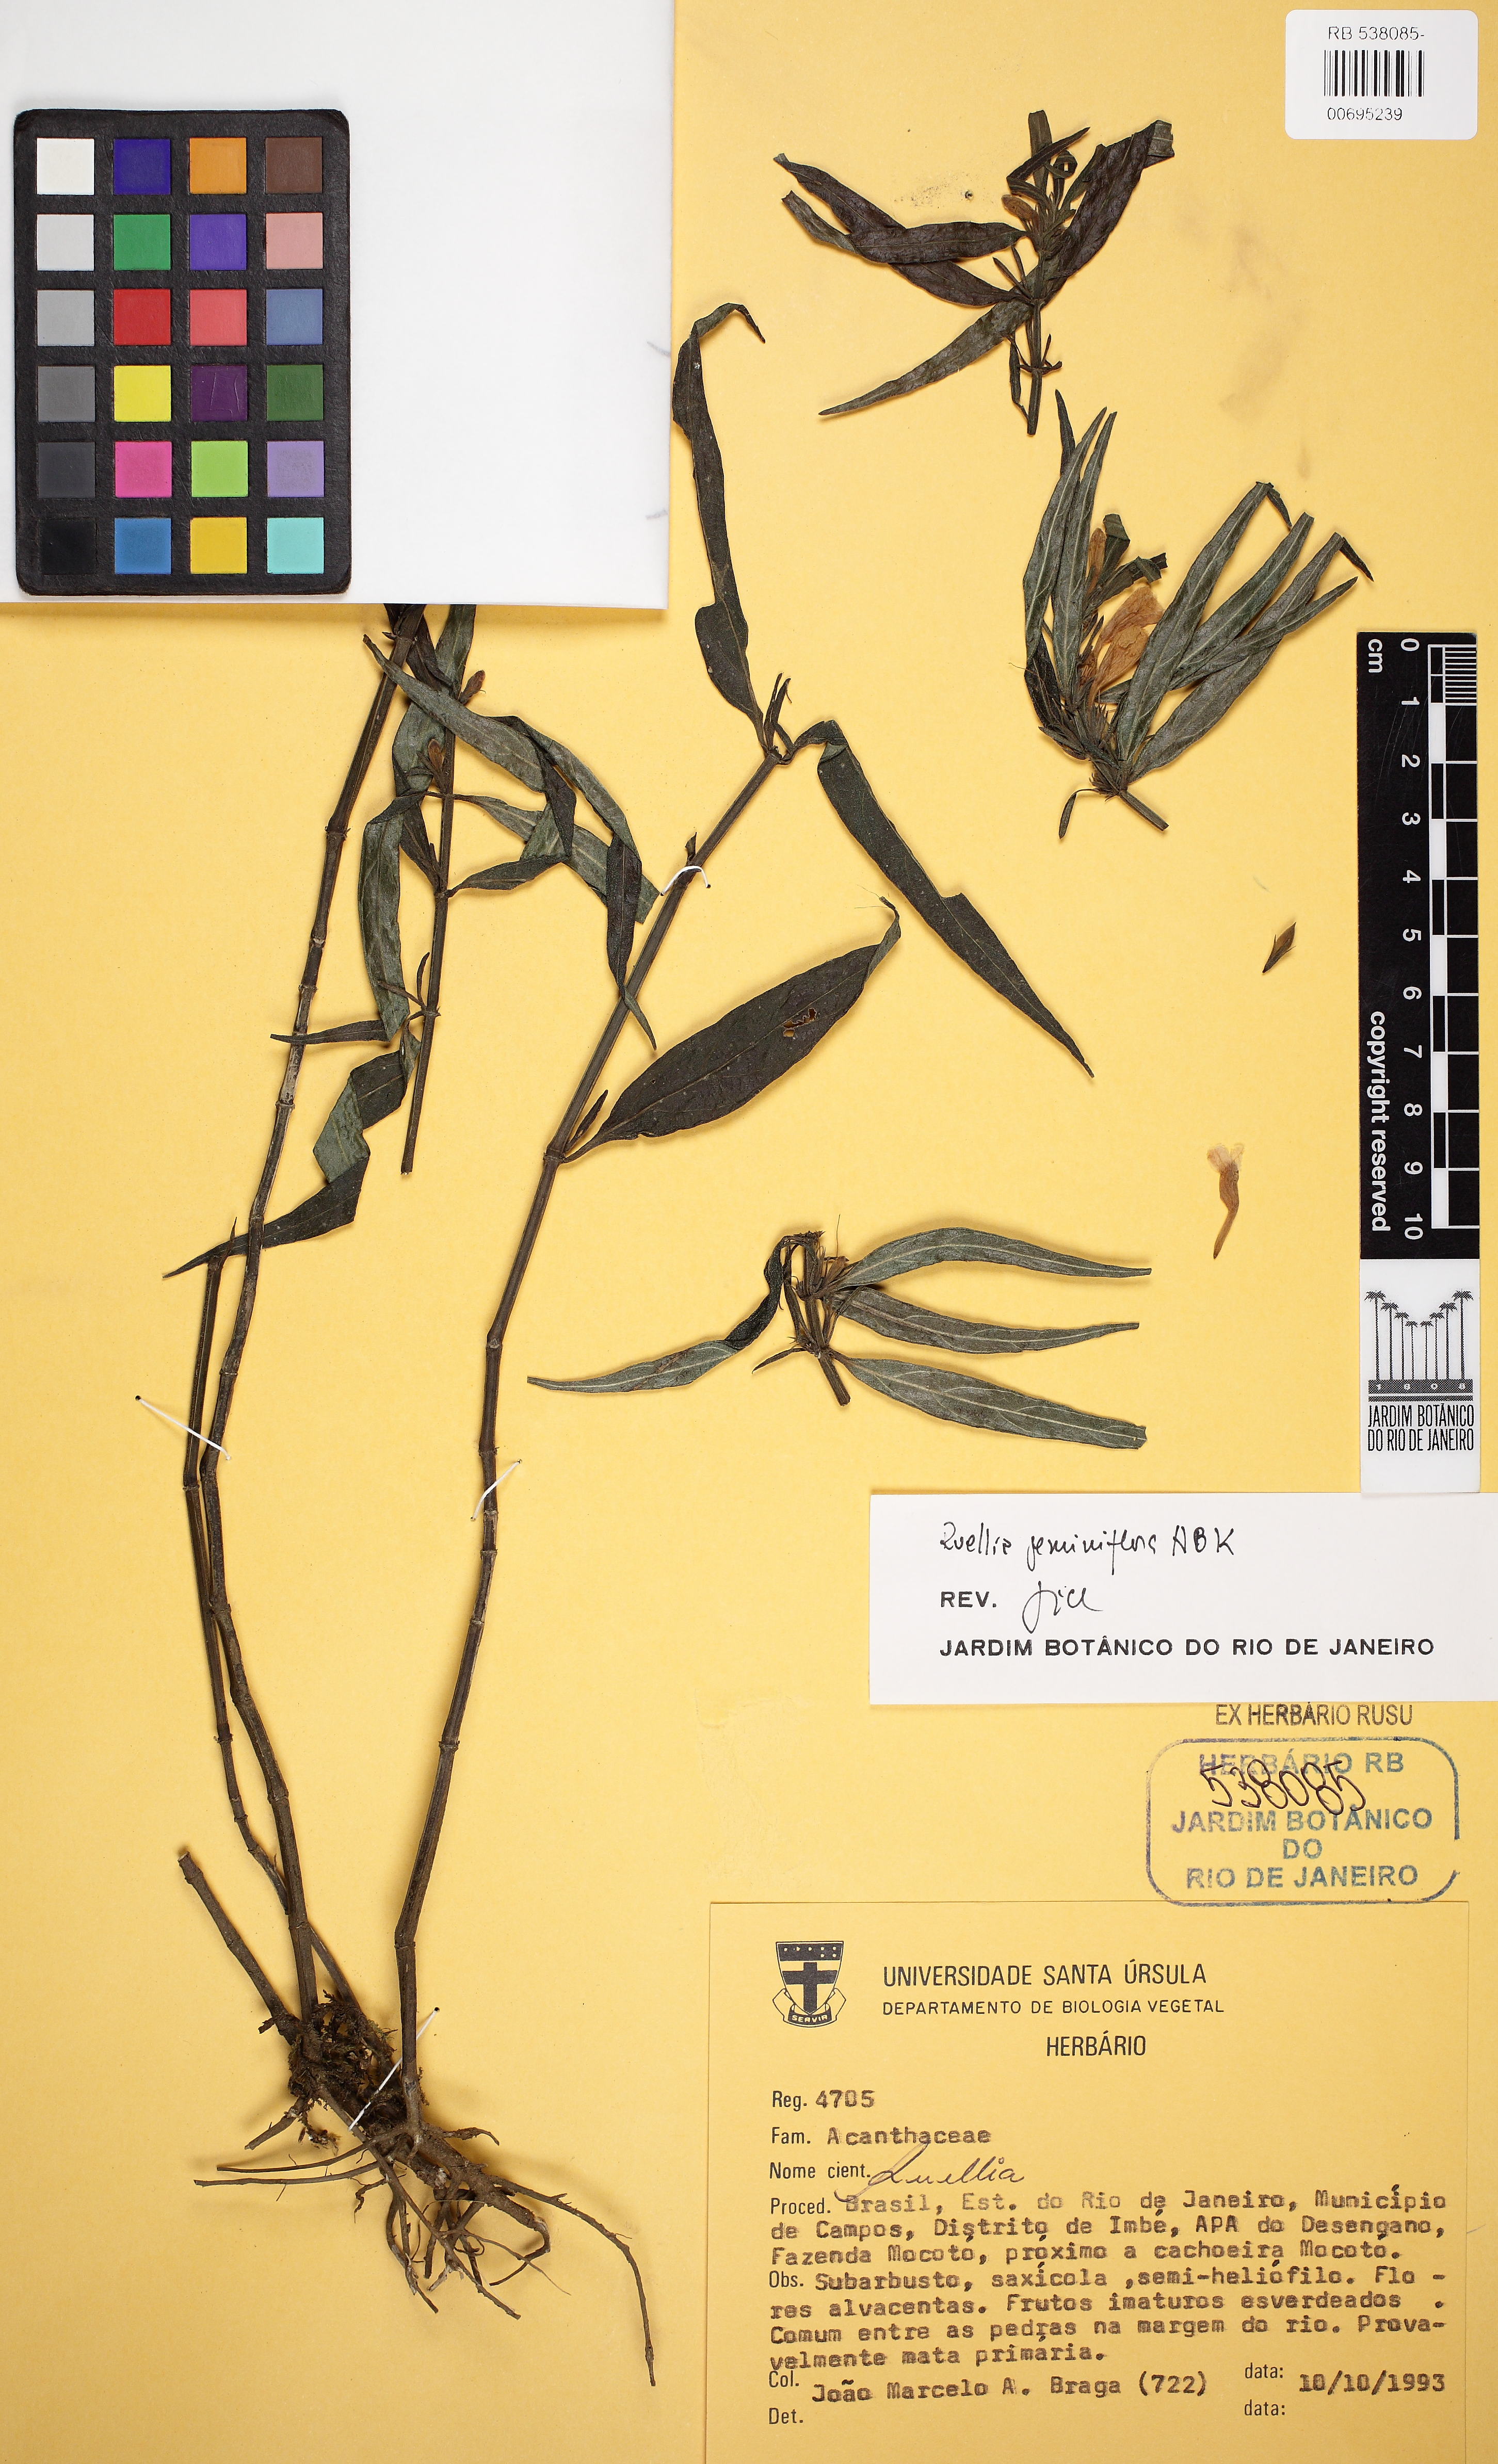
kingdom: Plantae
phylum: Tracheophyta
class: Magnoliopsida
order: Lamiales
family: Acanthaceae
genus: Ruellia
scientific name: Ruellia geminiflora
